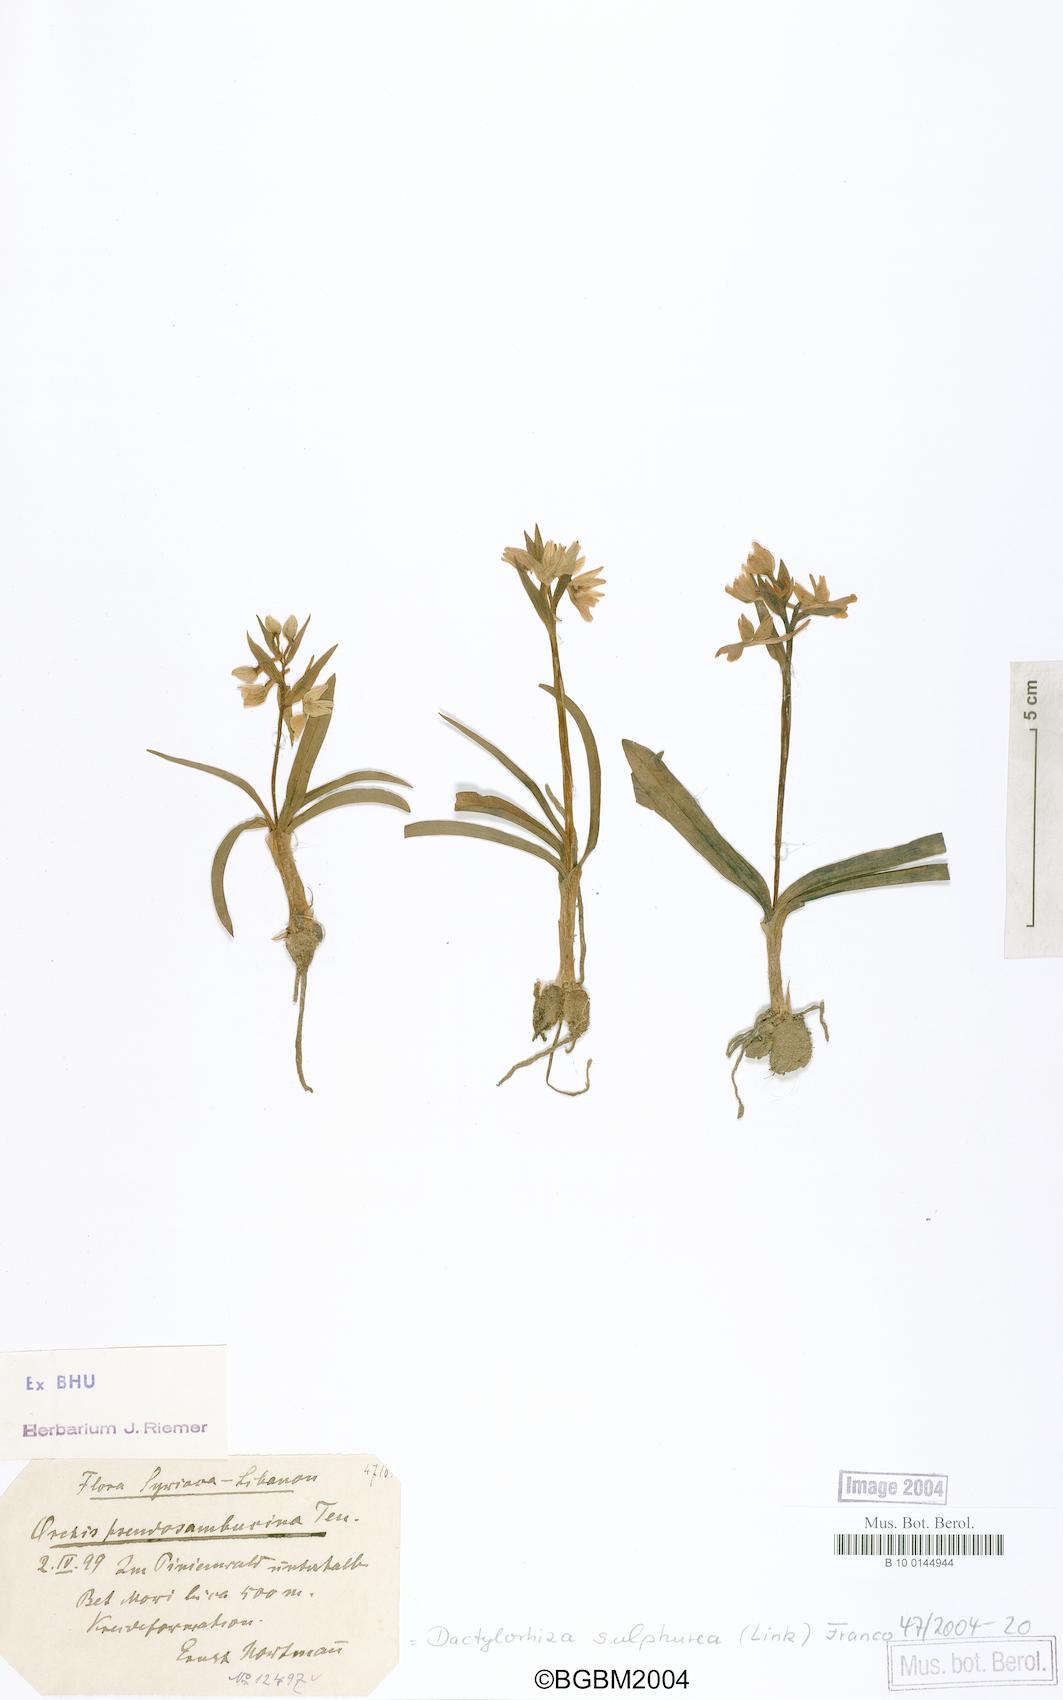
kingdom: Plantae
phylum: Tracheophyta
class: Liliopsida
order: Asparagales
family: Orchidaceae
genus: Dactylorhiza
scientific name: Dactylorhiza romana
